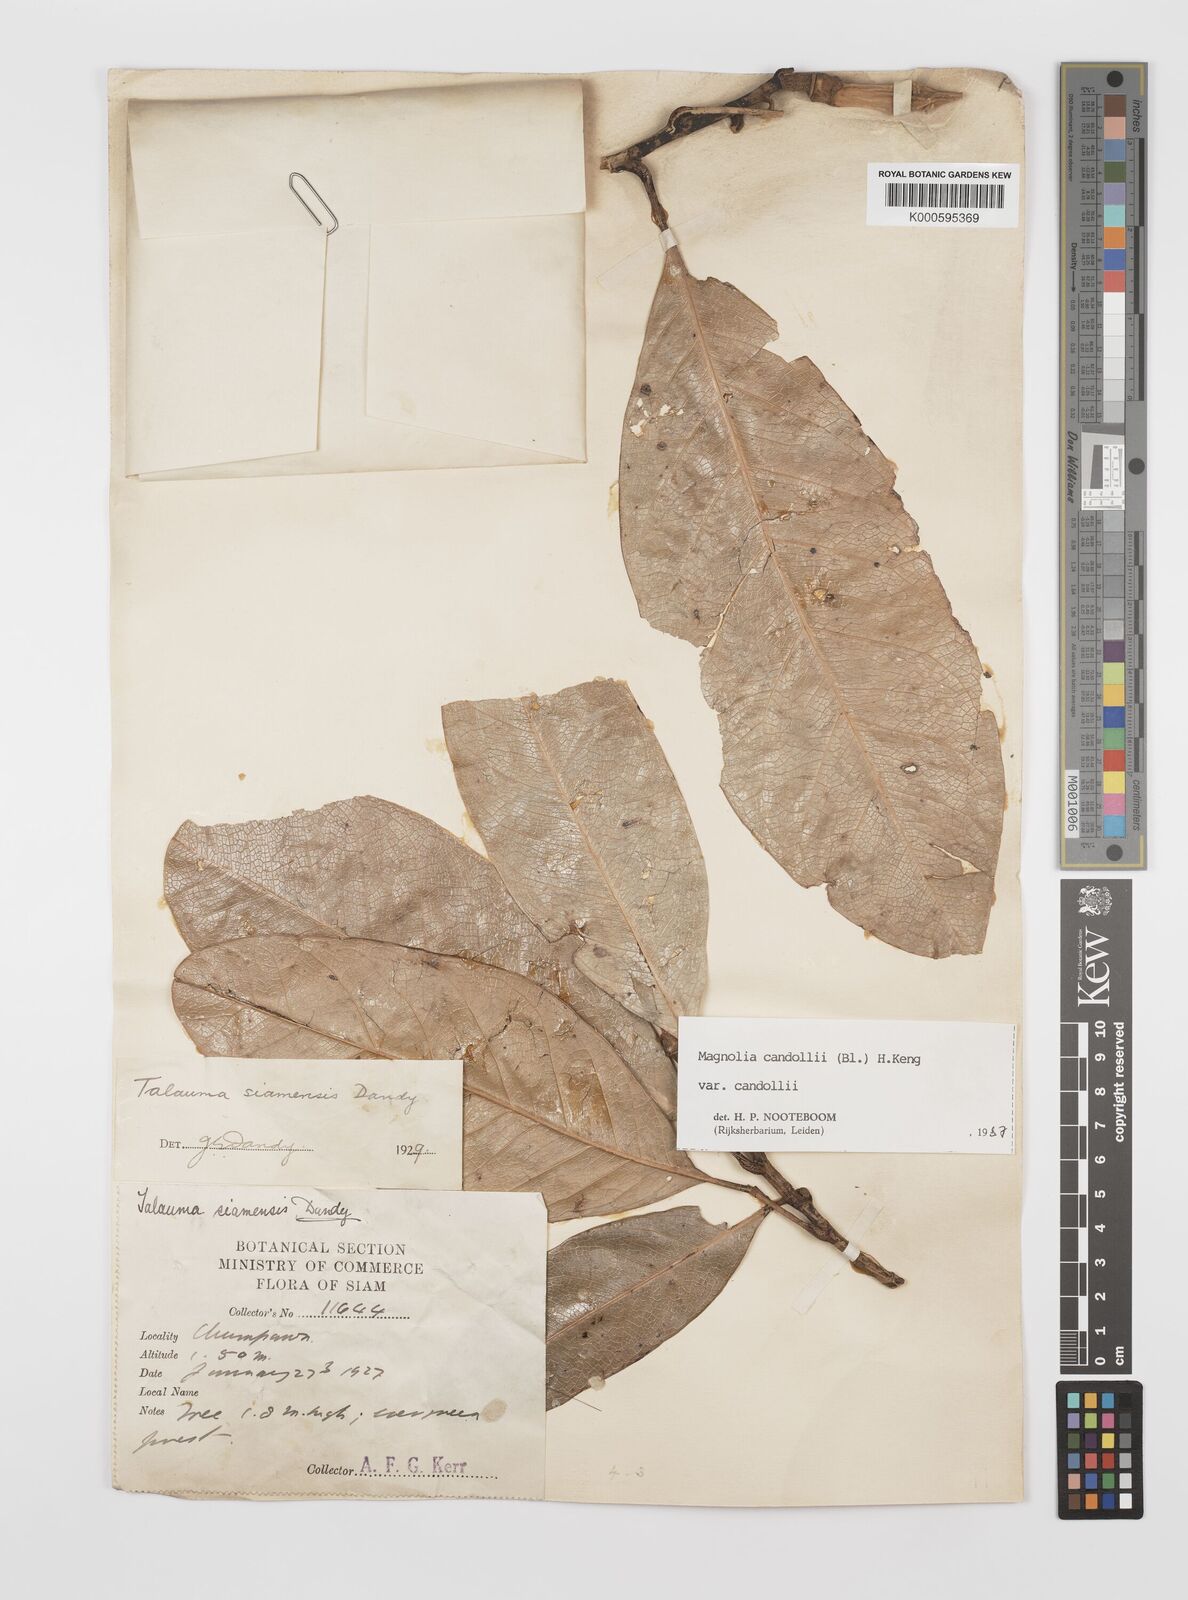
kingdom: Plantae
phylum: Tracheophyta
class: Magnoliopsida
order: Magnoliales
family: Magnoliaceae
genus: Magnolia
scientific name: Magnolia liliifera
